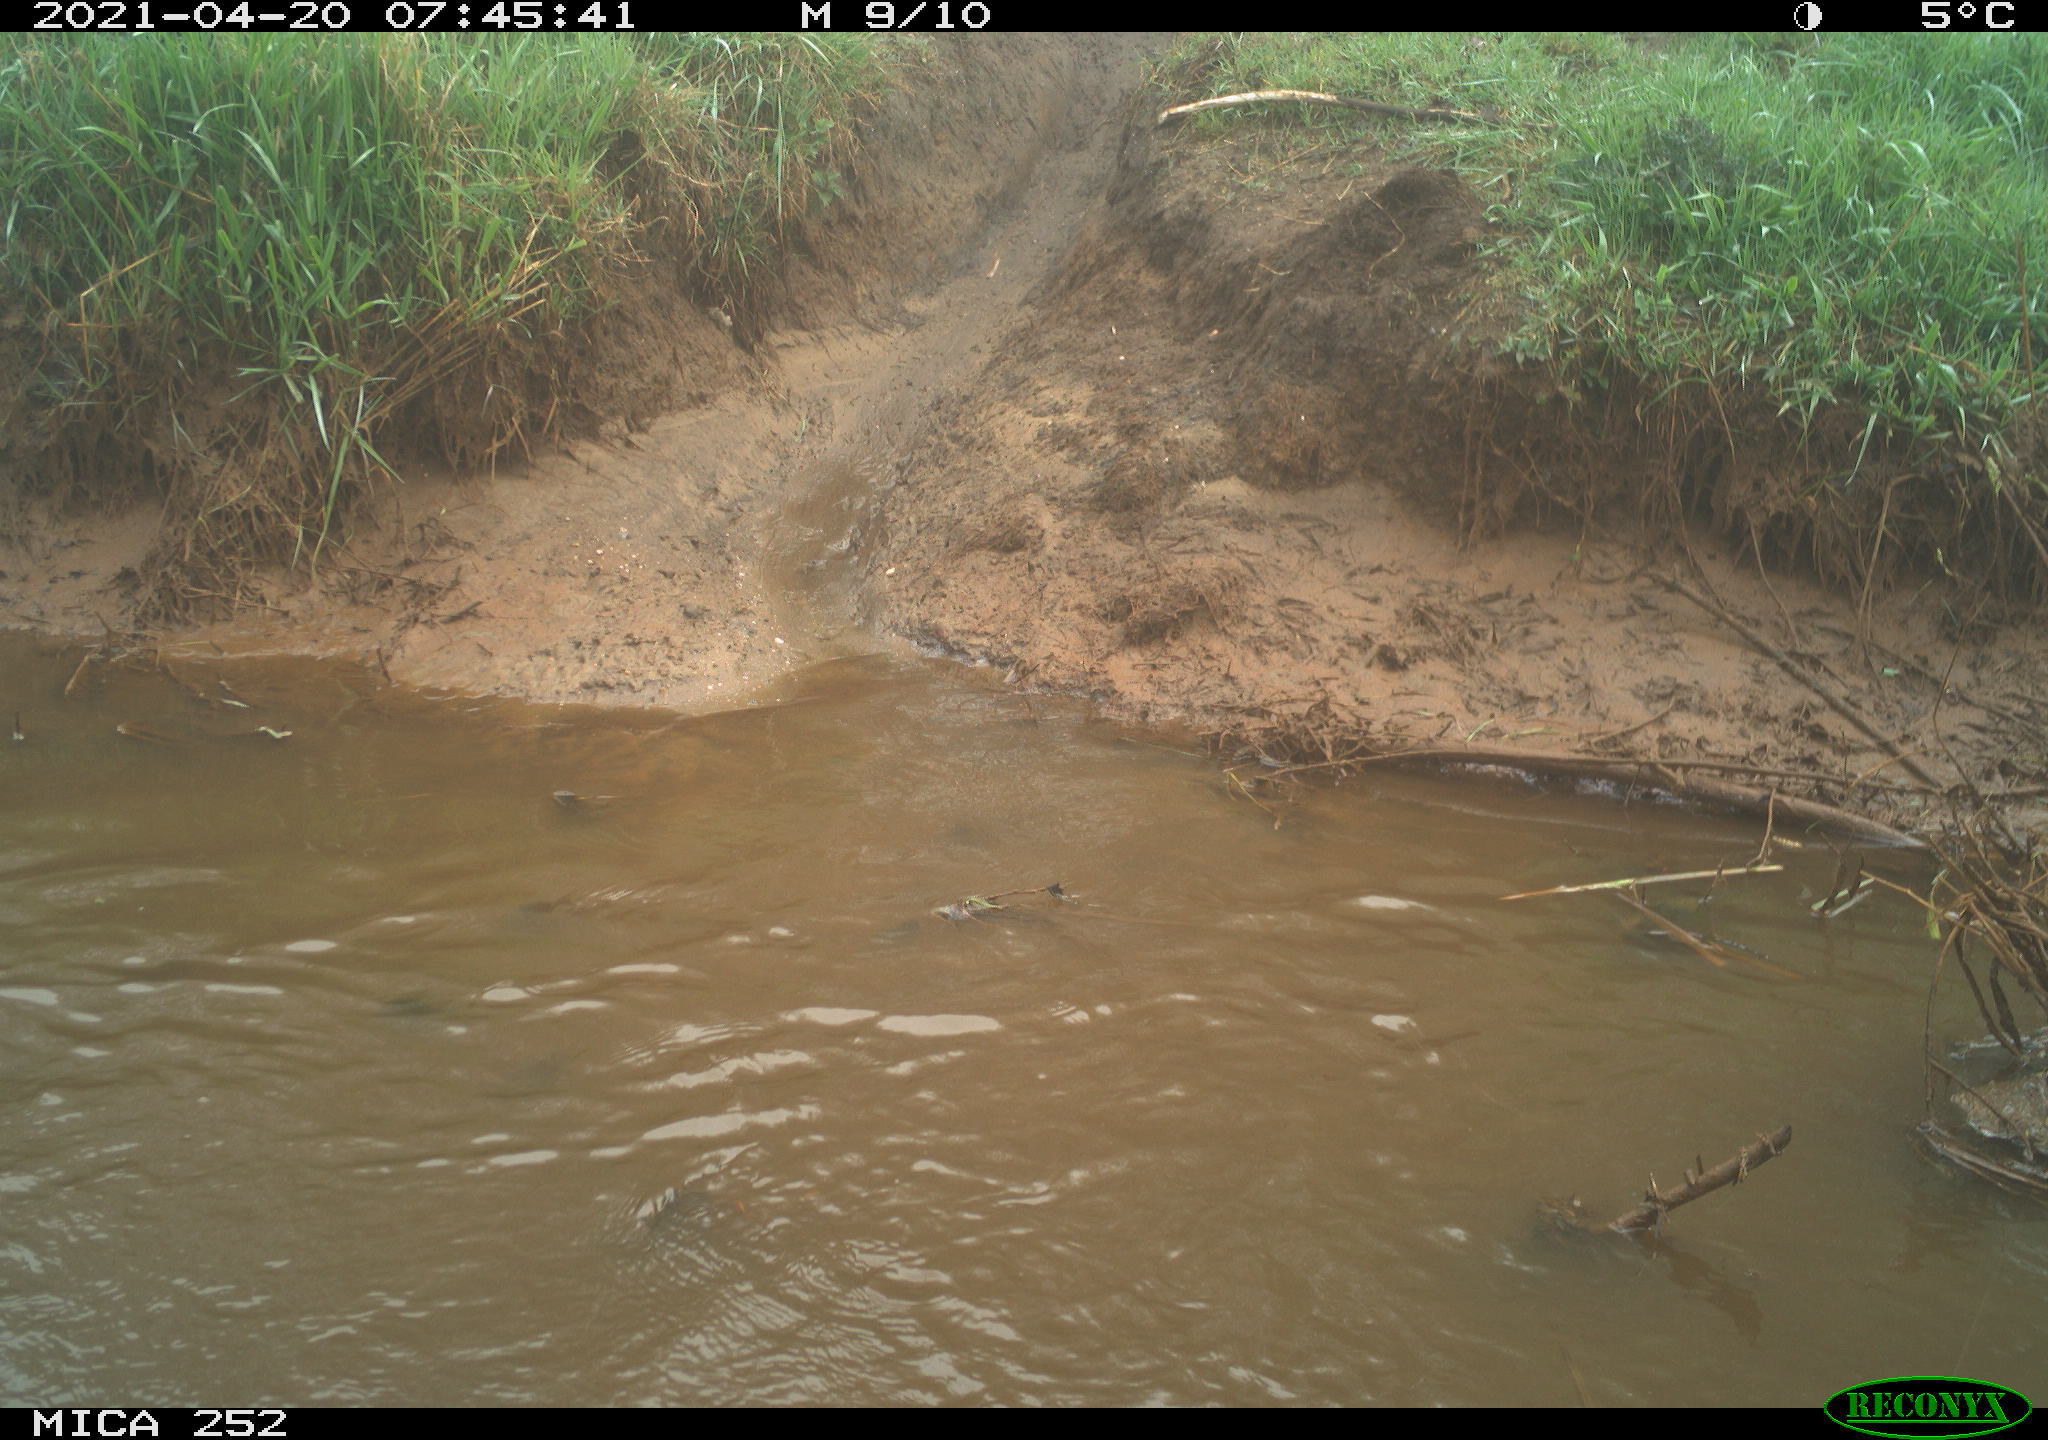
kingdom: Animalia
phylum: Chordata
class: Aves
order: Anseriformes
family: Anatidae
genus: Anser
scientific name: Anser anser
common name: Greylag goose
